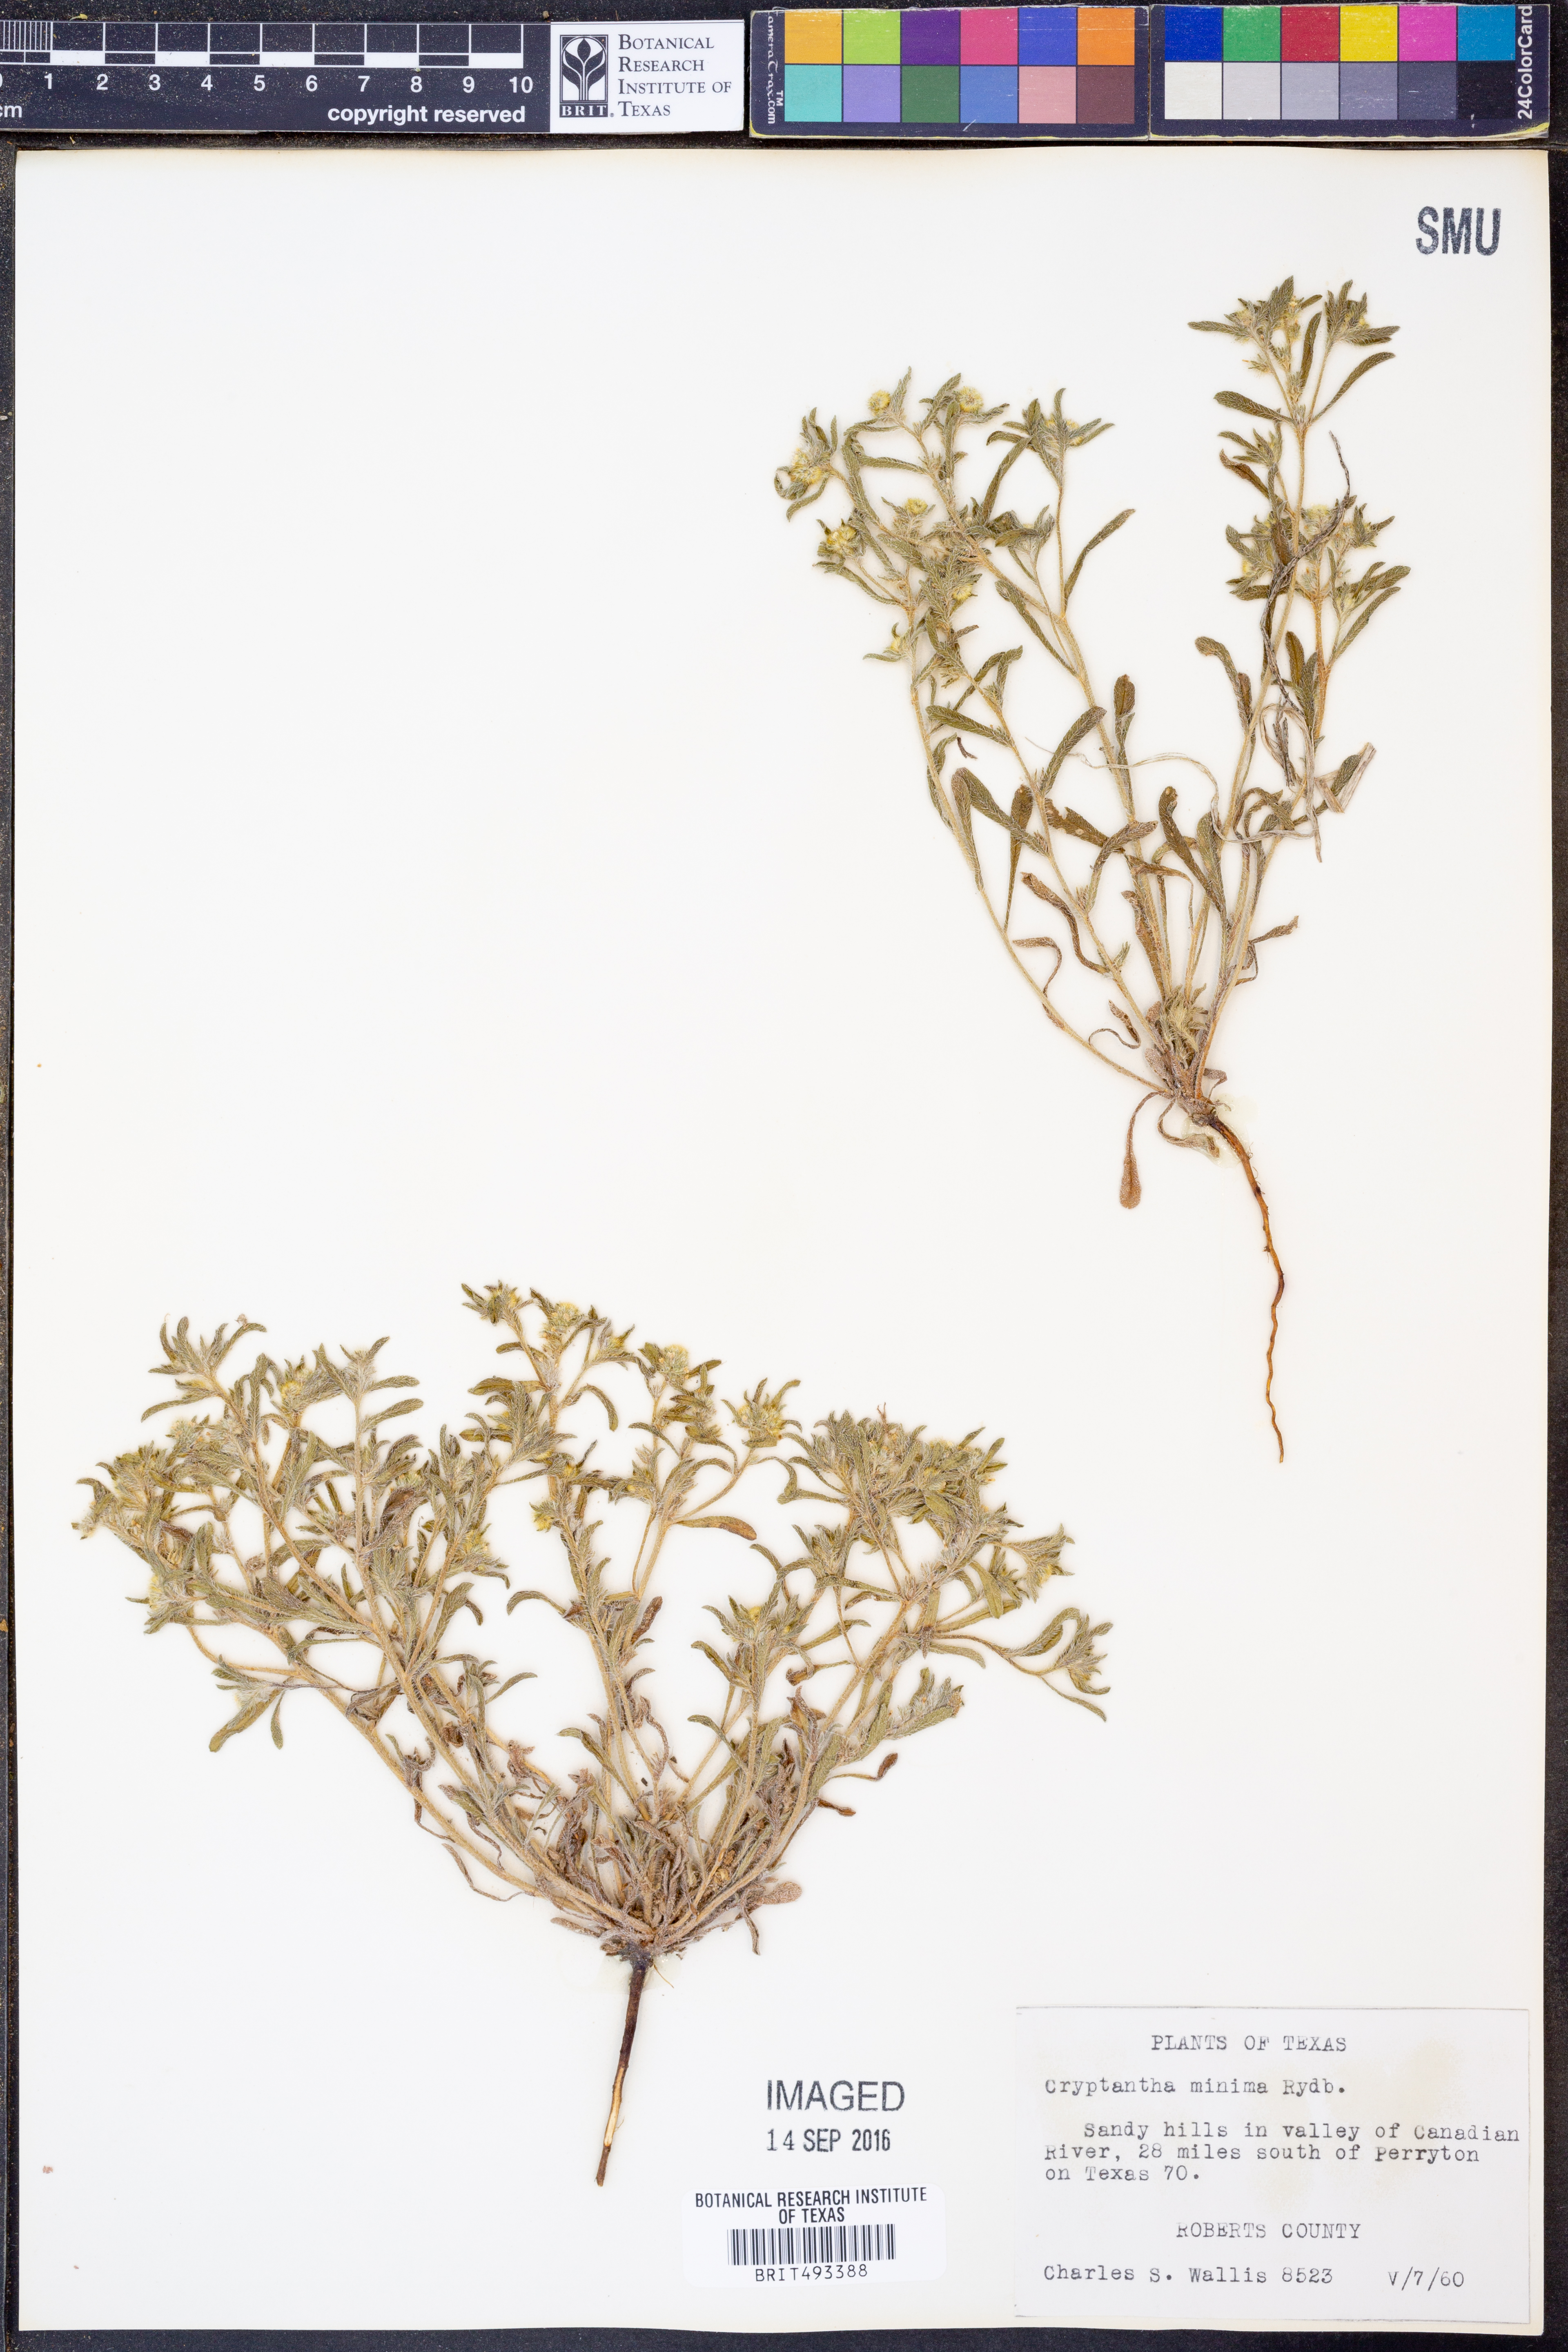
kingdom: Plantae
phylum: Tracheophyta
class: Magnoliopsida
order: Boraginales
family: Boraginaceae
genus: Cryptantha
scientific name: Cryptantha minima
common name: Little cat's-eye
